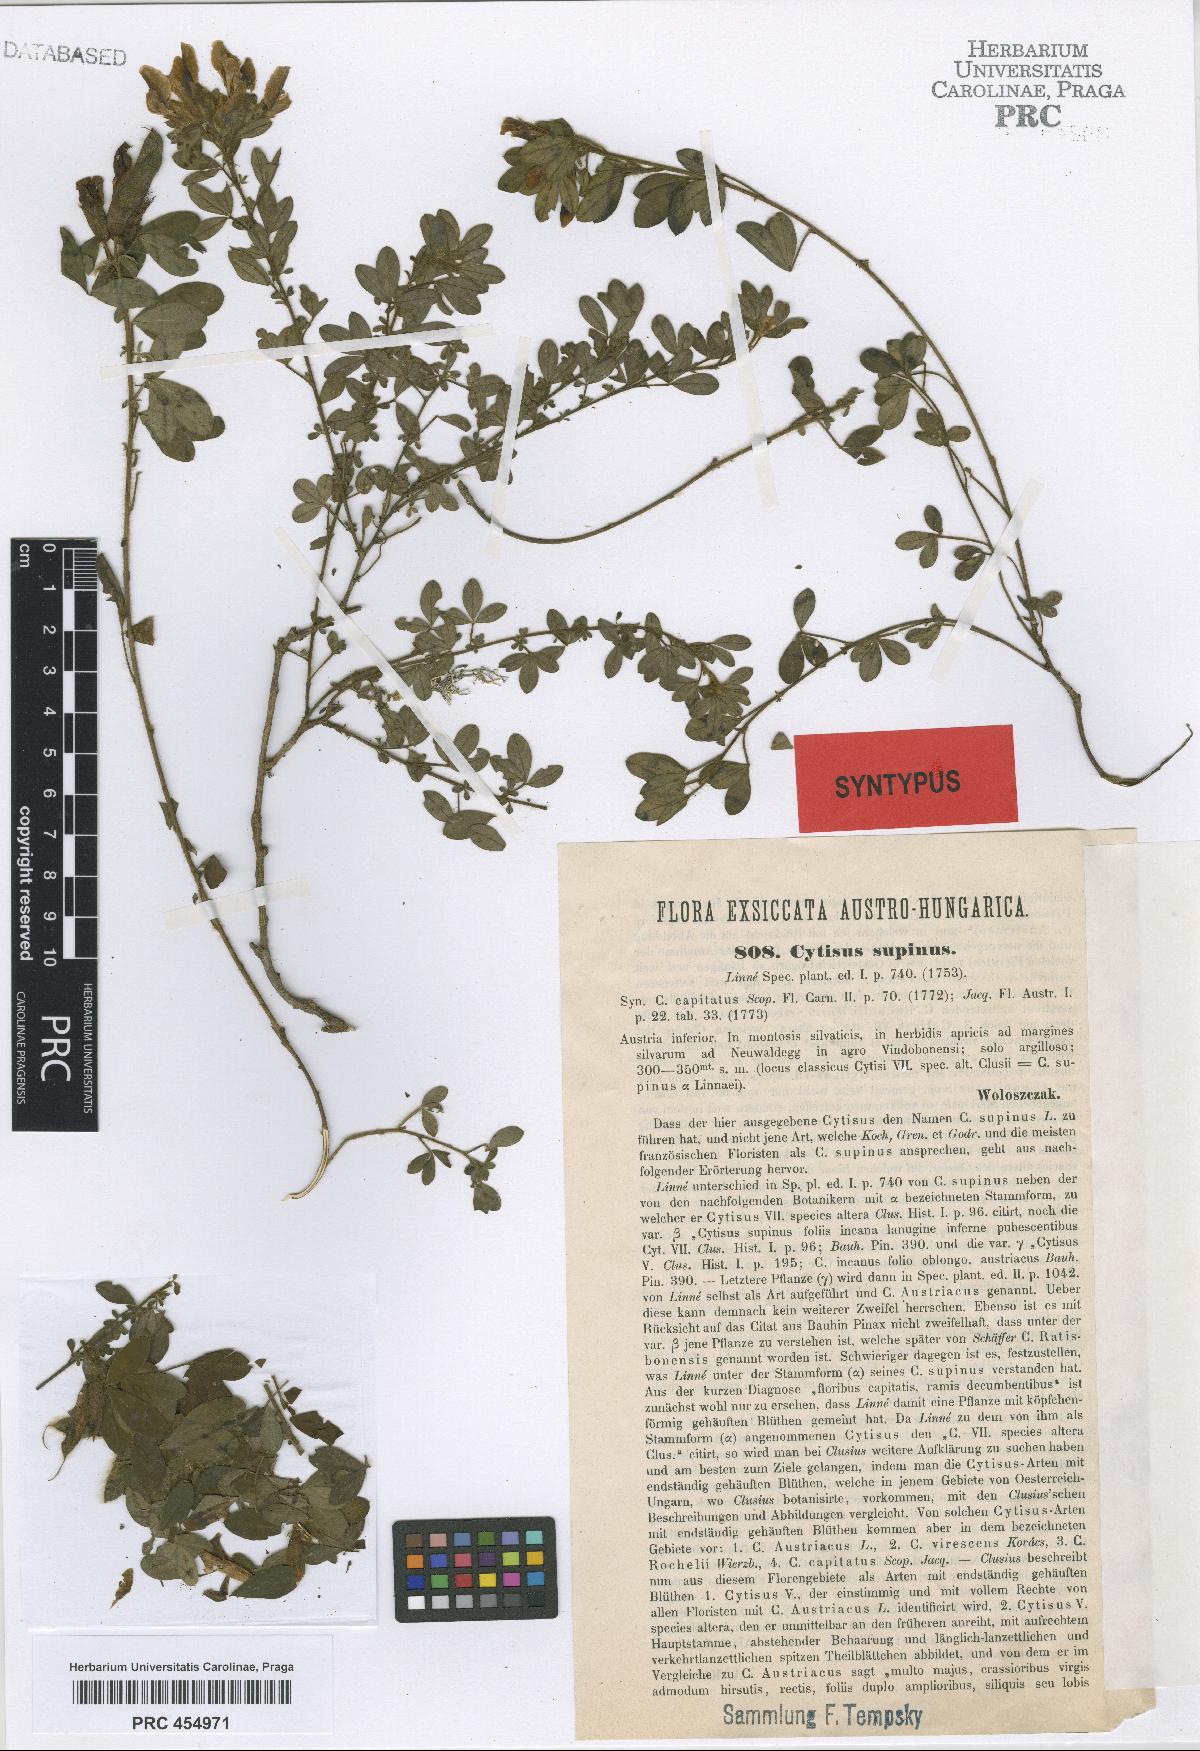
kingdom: Plantae
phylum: Tracheophyta
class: Magnoliopsida
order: Fabales
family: Fabaceae
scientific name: Fabaceae
